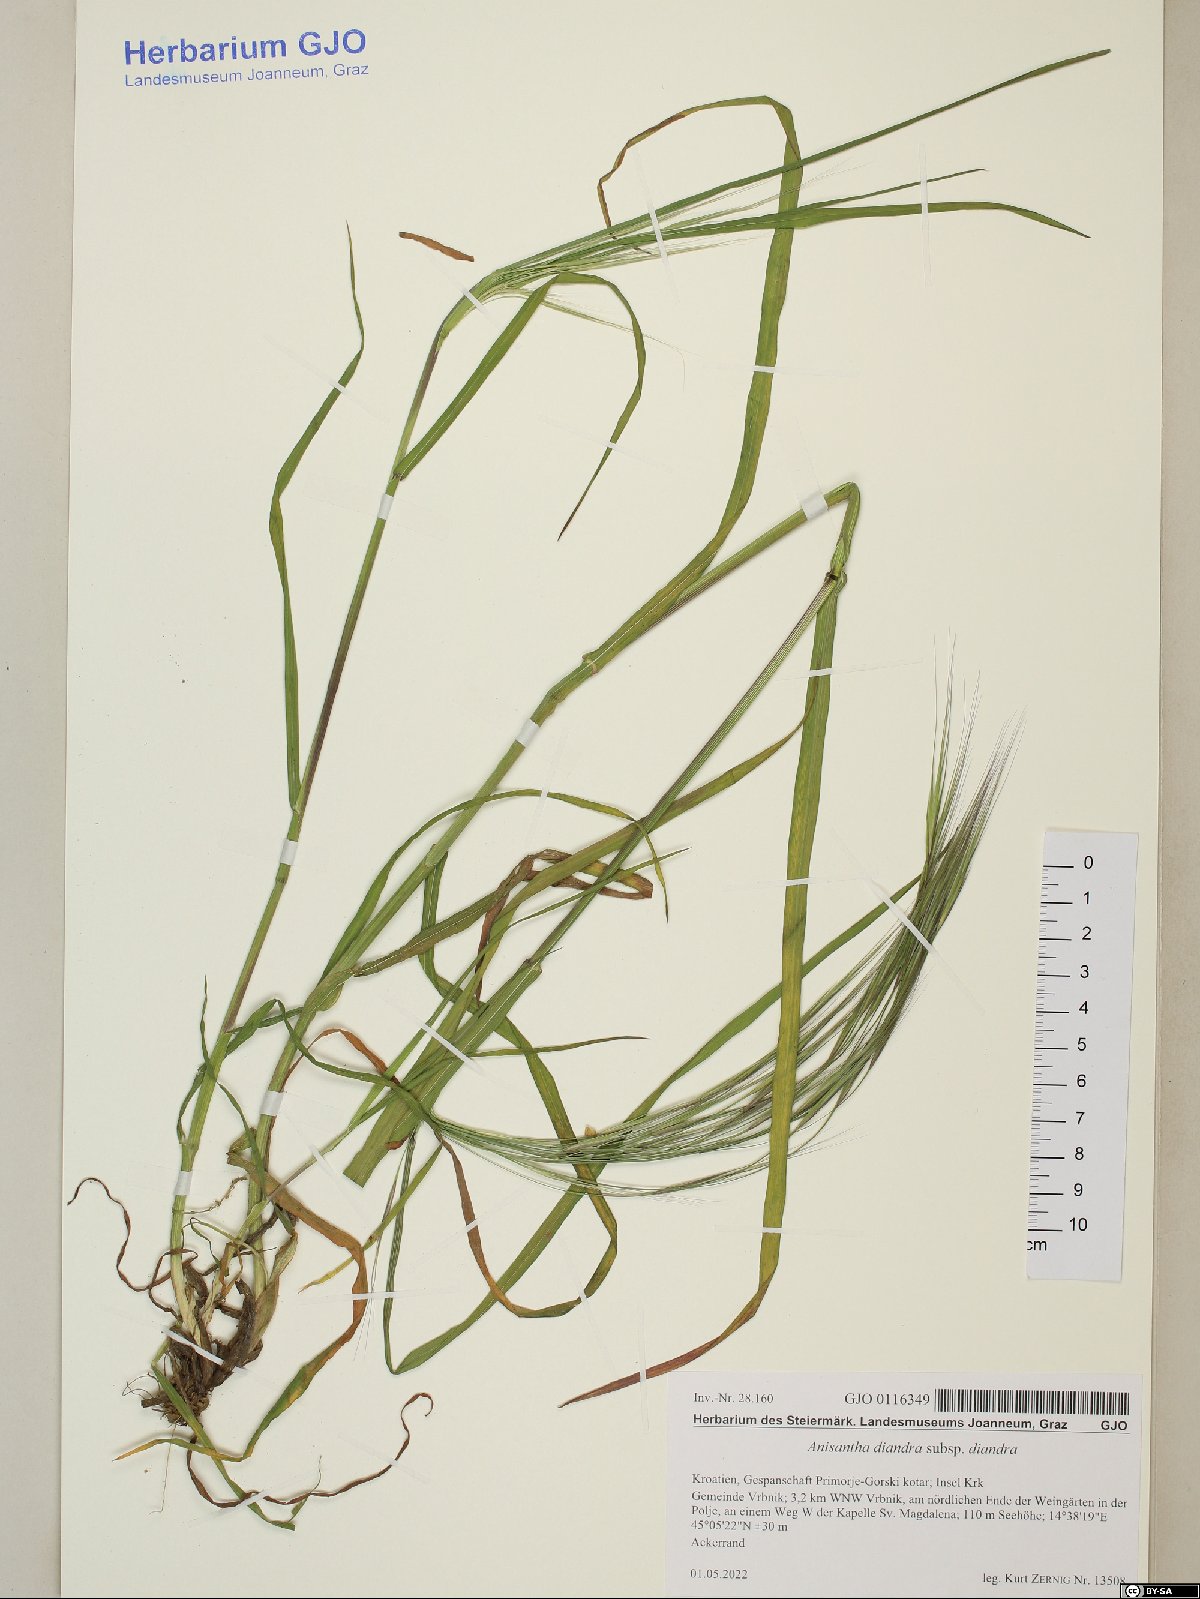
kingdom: Plantae
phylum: Tracheophyta
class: Liliopsida
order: Poales
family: Poaceae
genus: Bromus
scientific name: Bromus diandrus
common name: Ripgut brome
